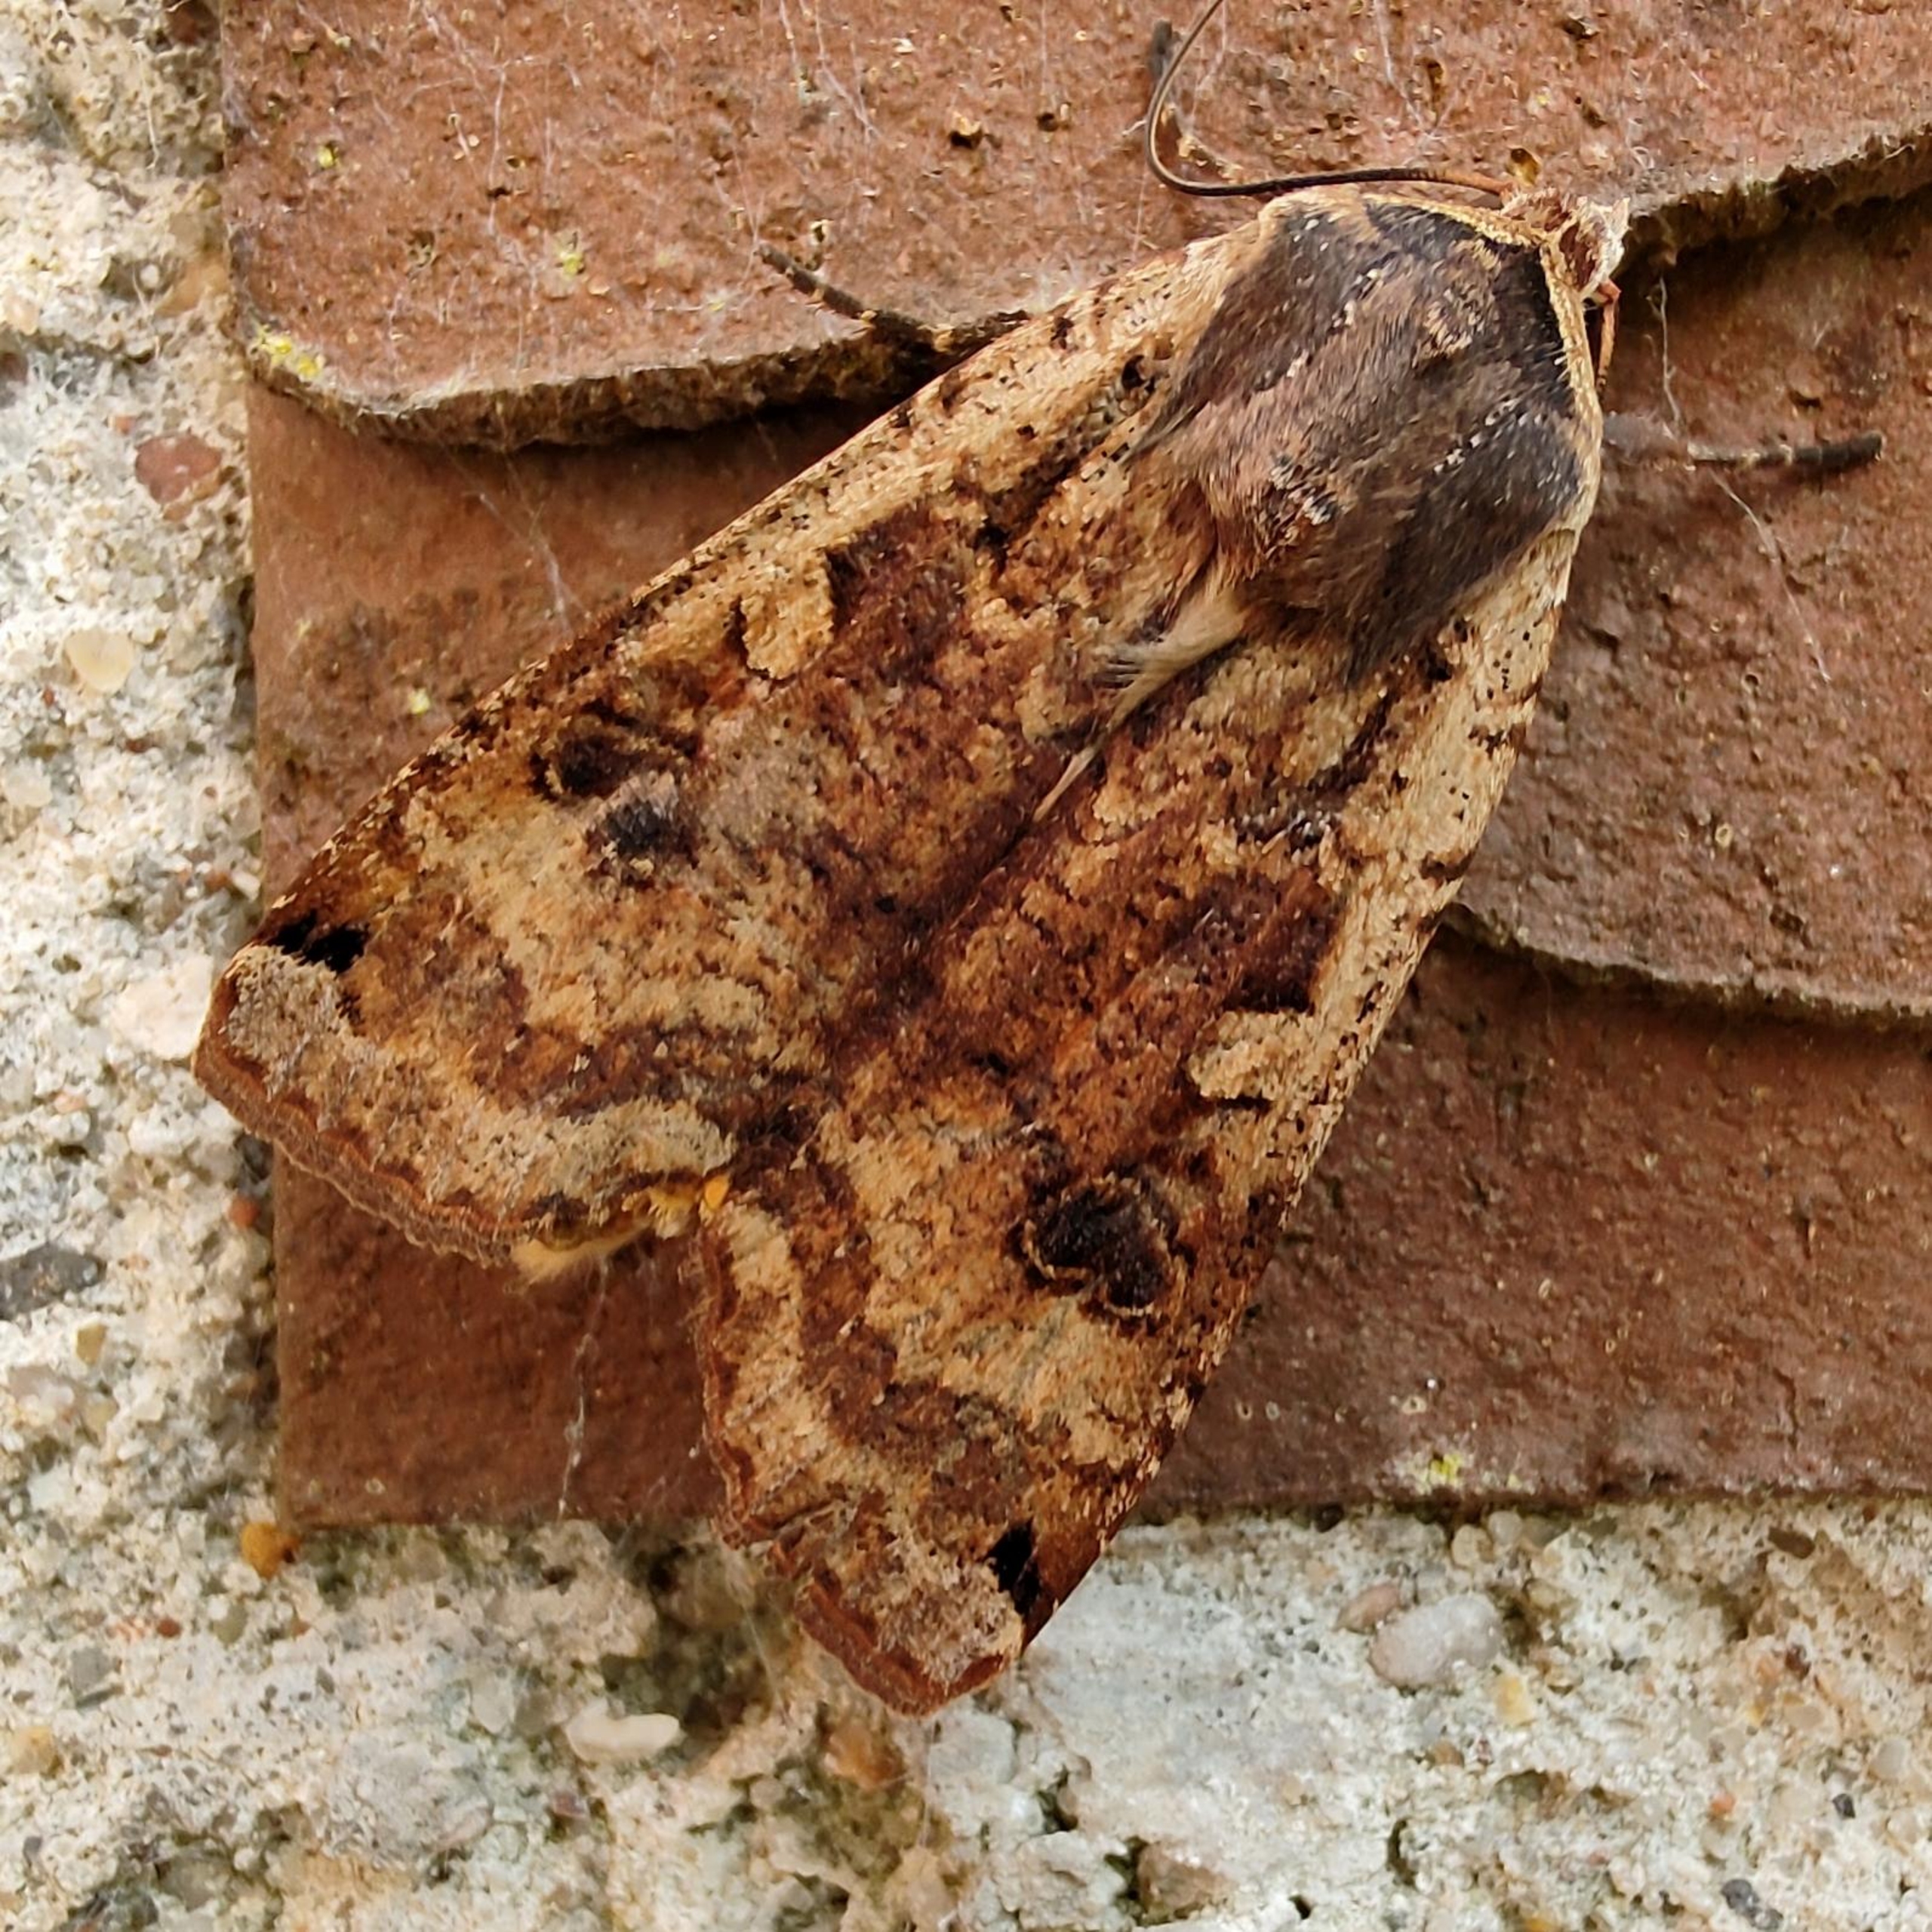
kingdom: Animalia
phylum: Arthropoda
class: Insecta
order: Lepidoptera
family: Noctuidae
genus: Noctua
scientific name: Noctua pronuba
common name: Stor smutugle
